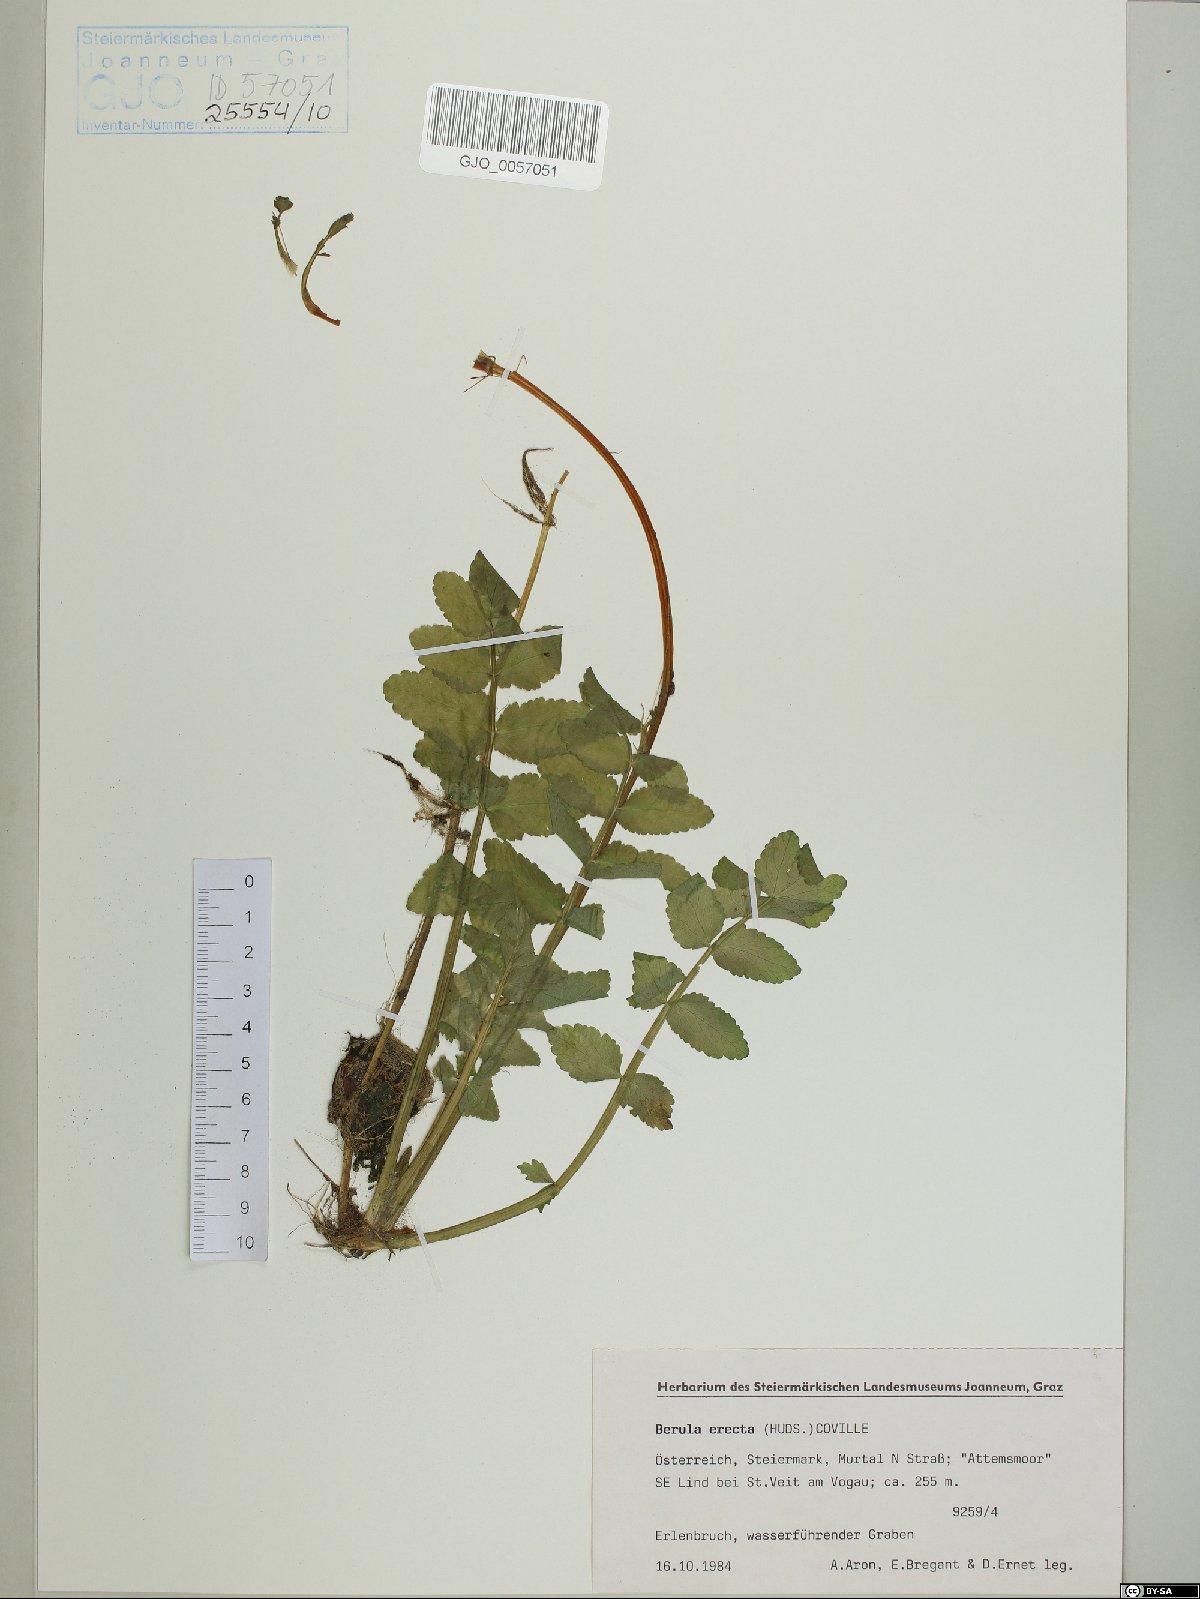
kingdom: Plantae
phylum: Tracheophyta
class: Magnoliopsida
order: Apiales
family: Apiaceae
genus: Berula
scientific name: Berula erecta
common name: Lesser water-parsnip
